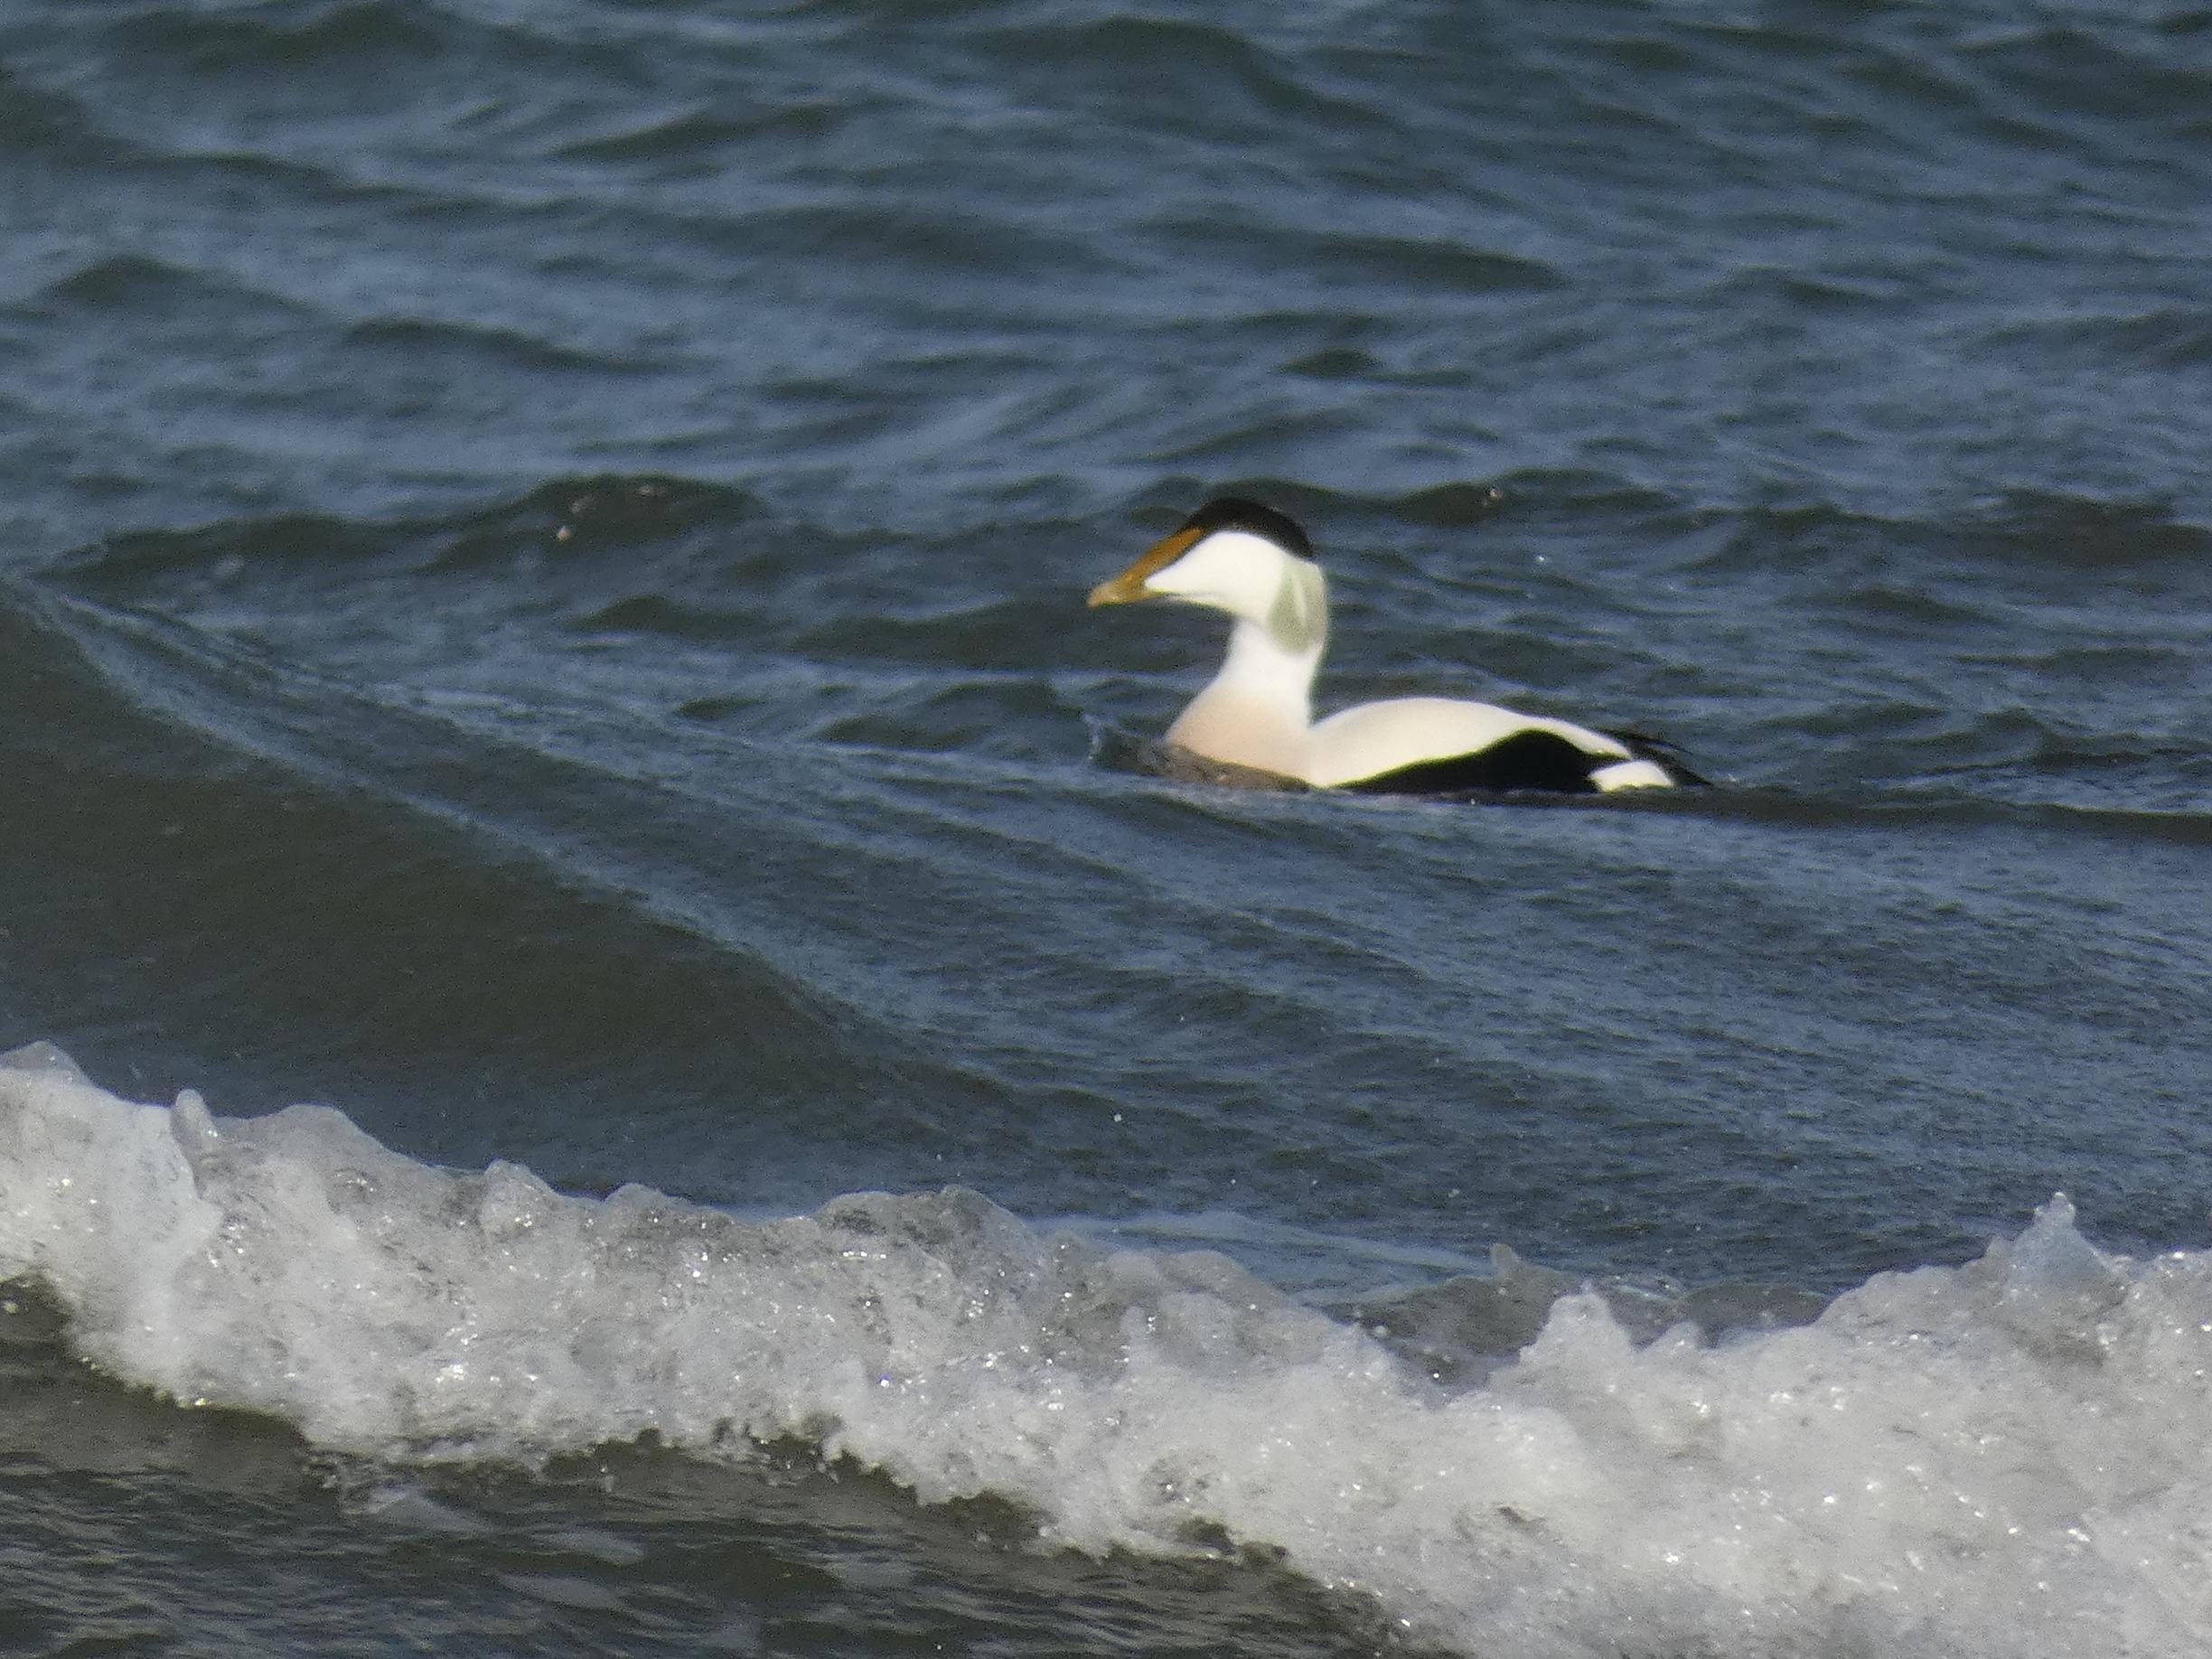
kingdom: Animalia
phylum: Chordata
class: Aves
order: Anseriformes
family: Anatidae
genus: Somateria
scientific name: Somateria mollissima
